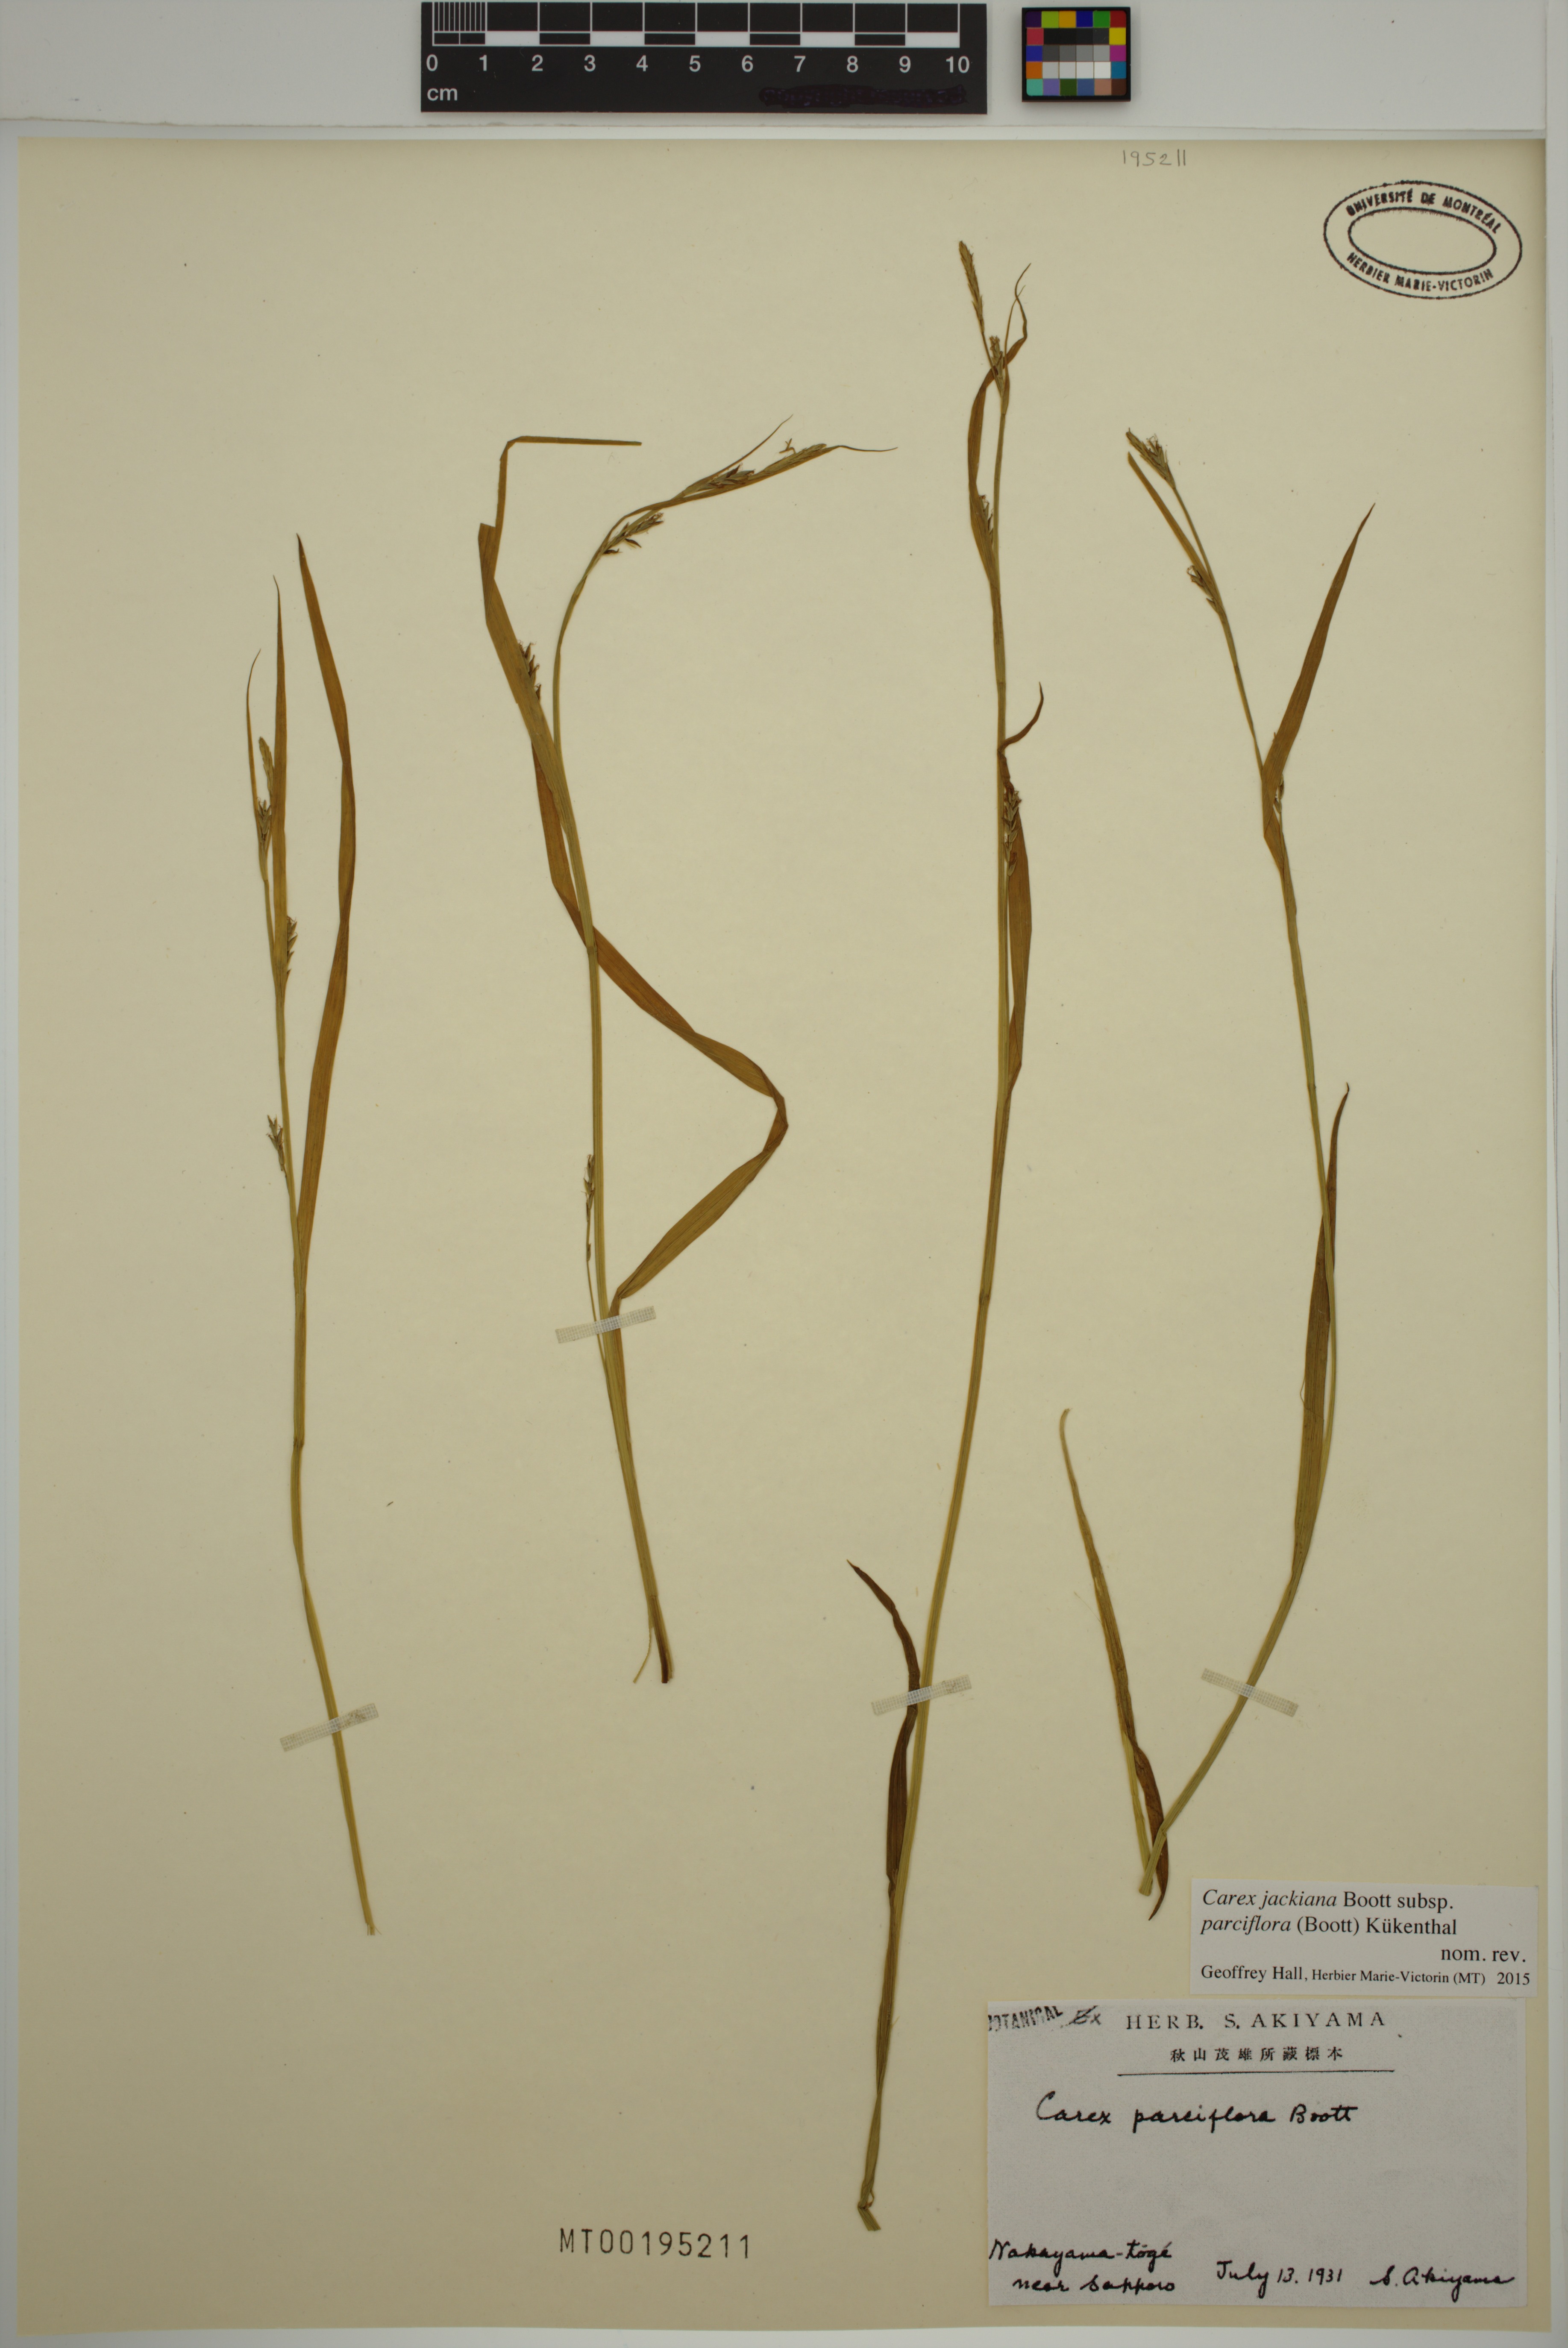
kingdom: Plantae
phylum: Tracheophyta
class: Liliopsida
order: Poales
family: Cyperaceae
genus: Carex
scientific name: Carex parciflora
